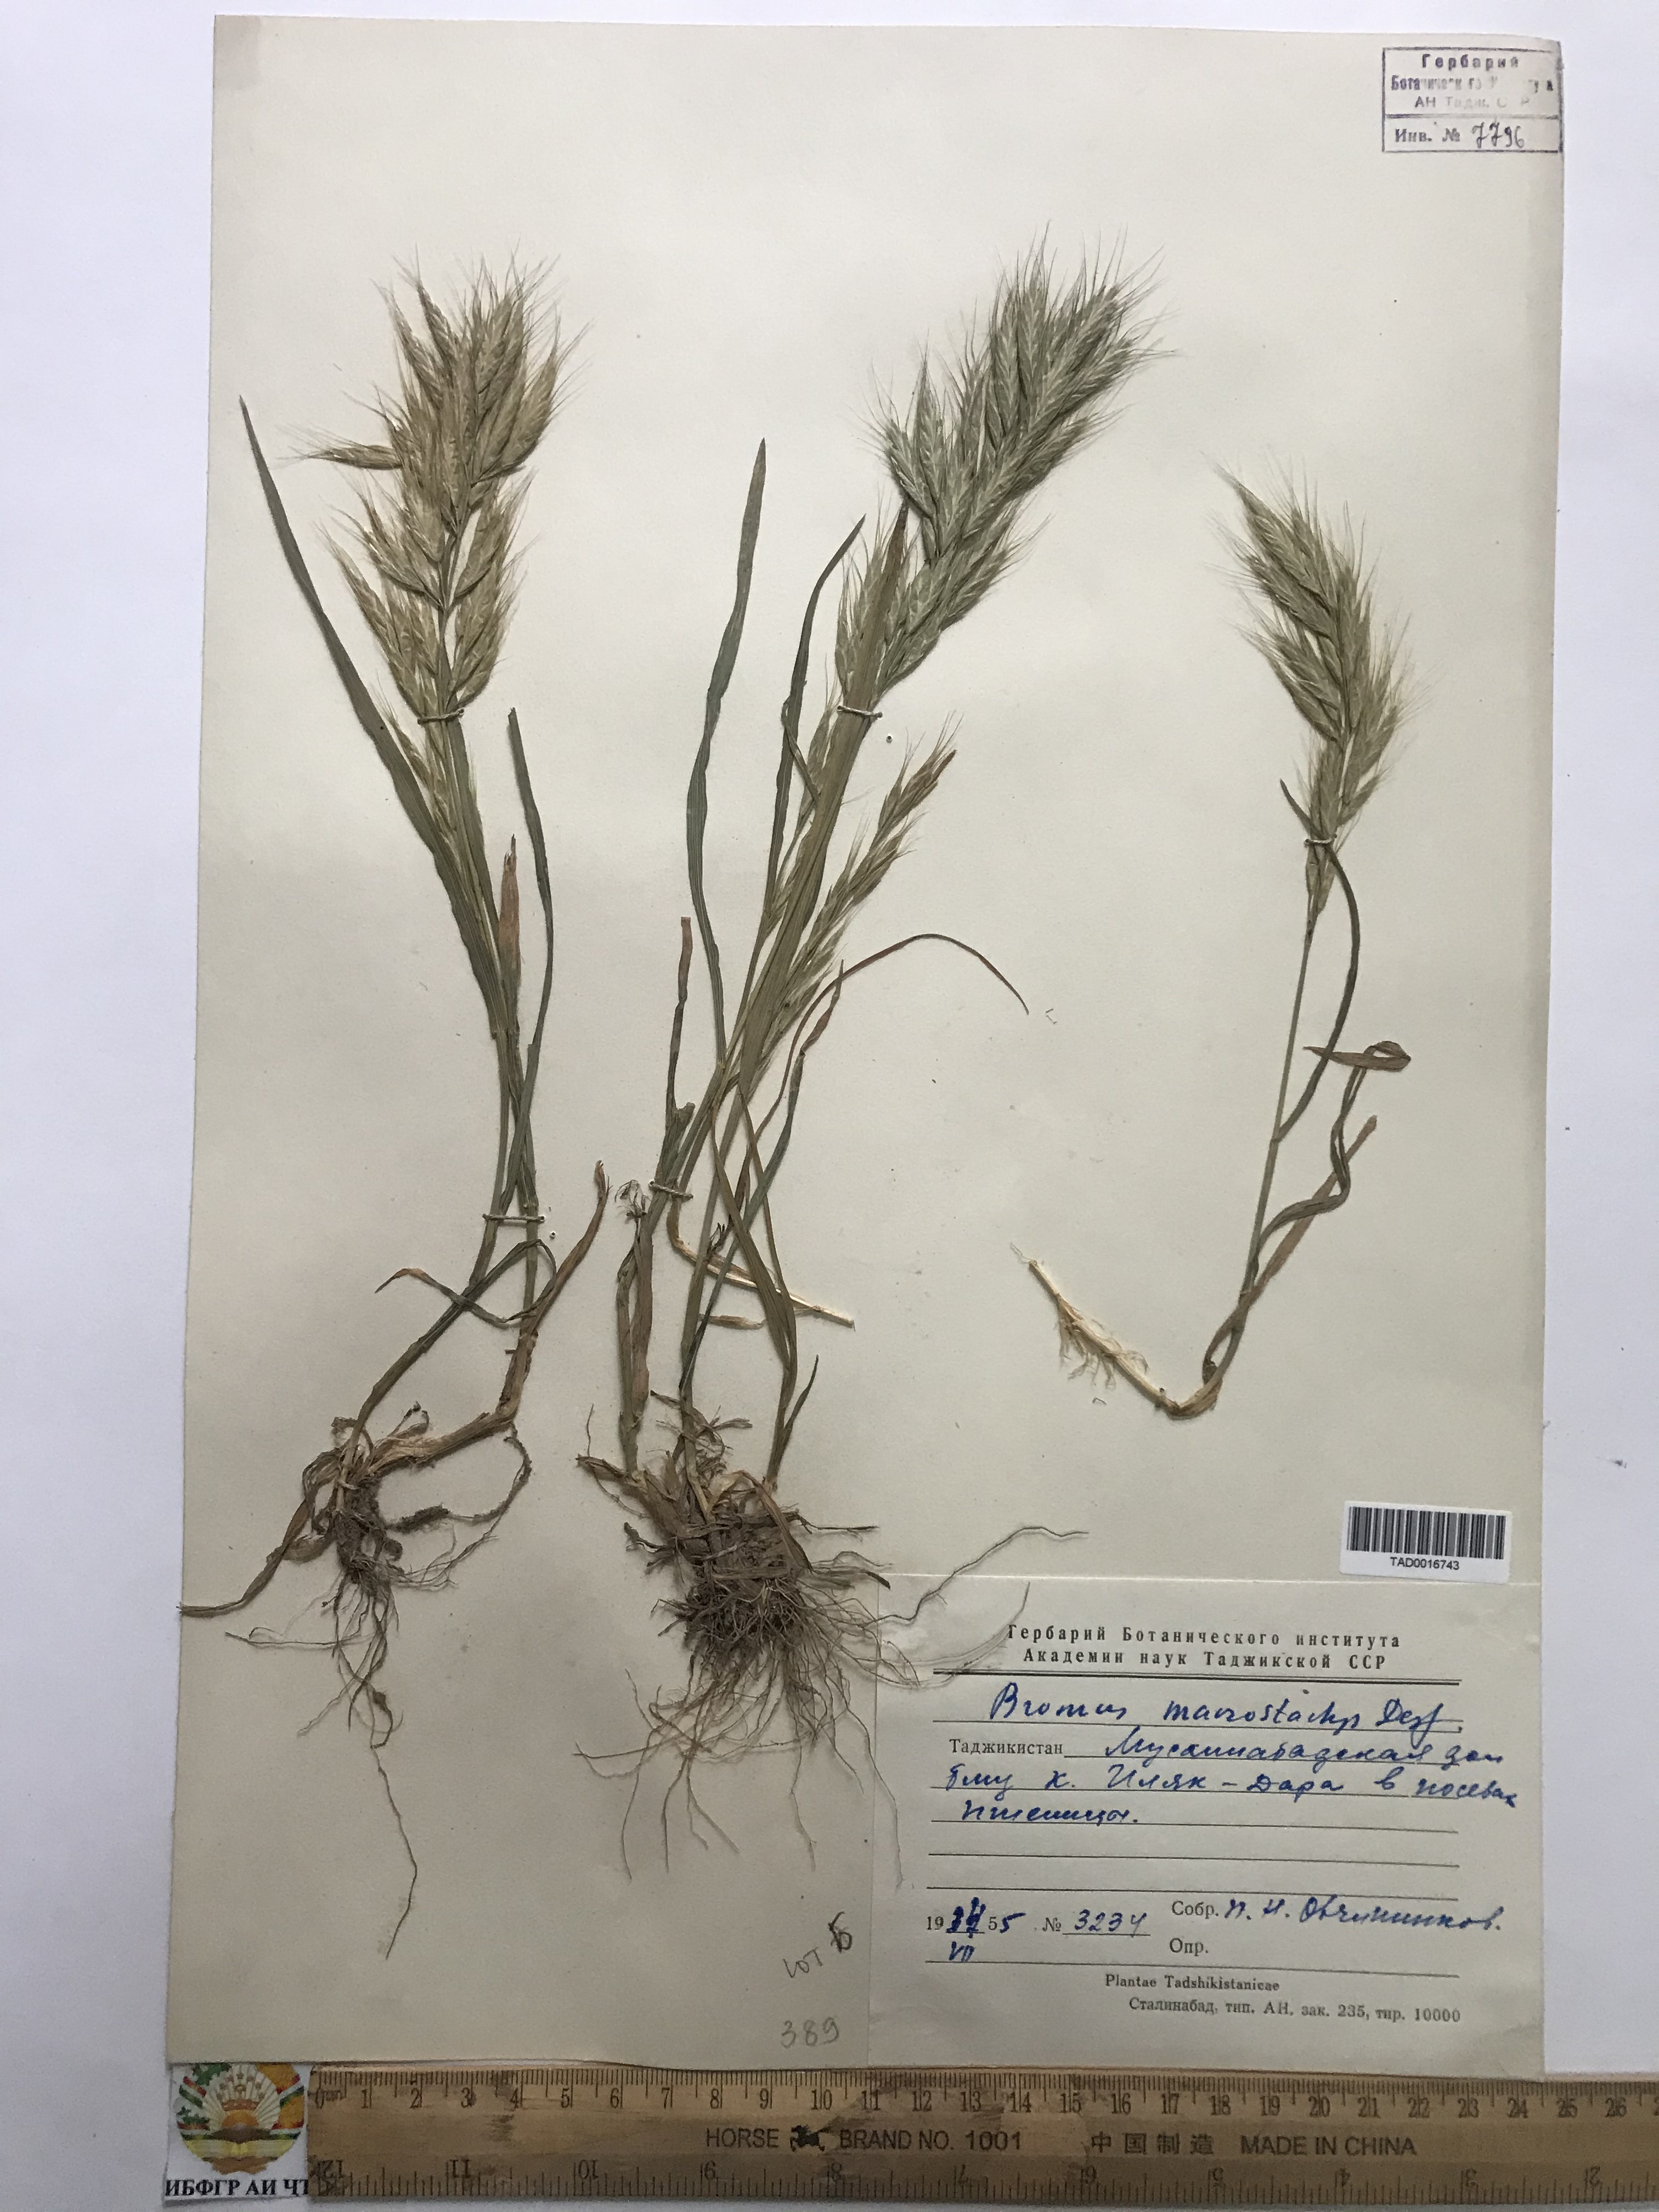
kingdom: Plantae
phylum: Tracheophyta
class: Liliopsida
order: Poales
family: Poaceae
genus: Bromus
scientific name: Bromus lanceolatus
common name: Mediterranean brome
